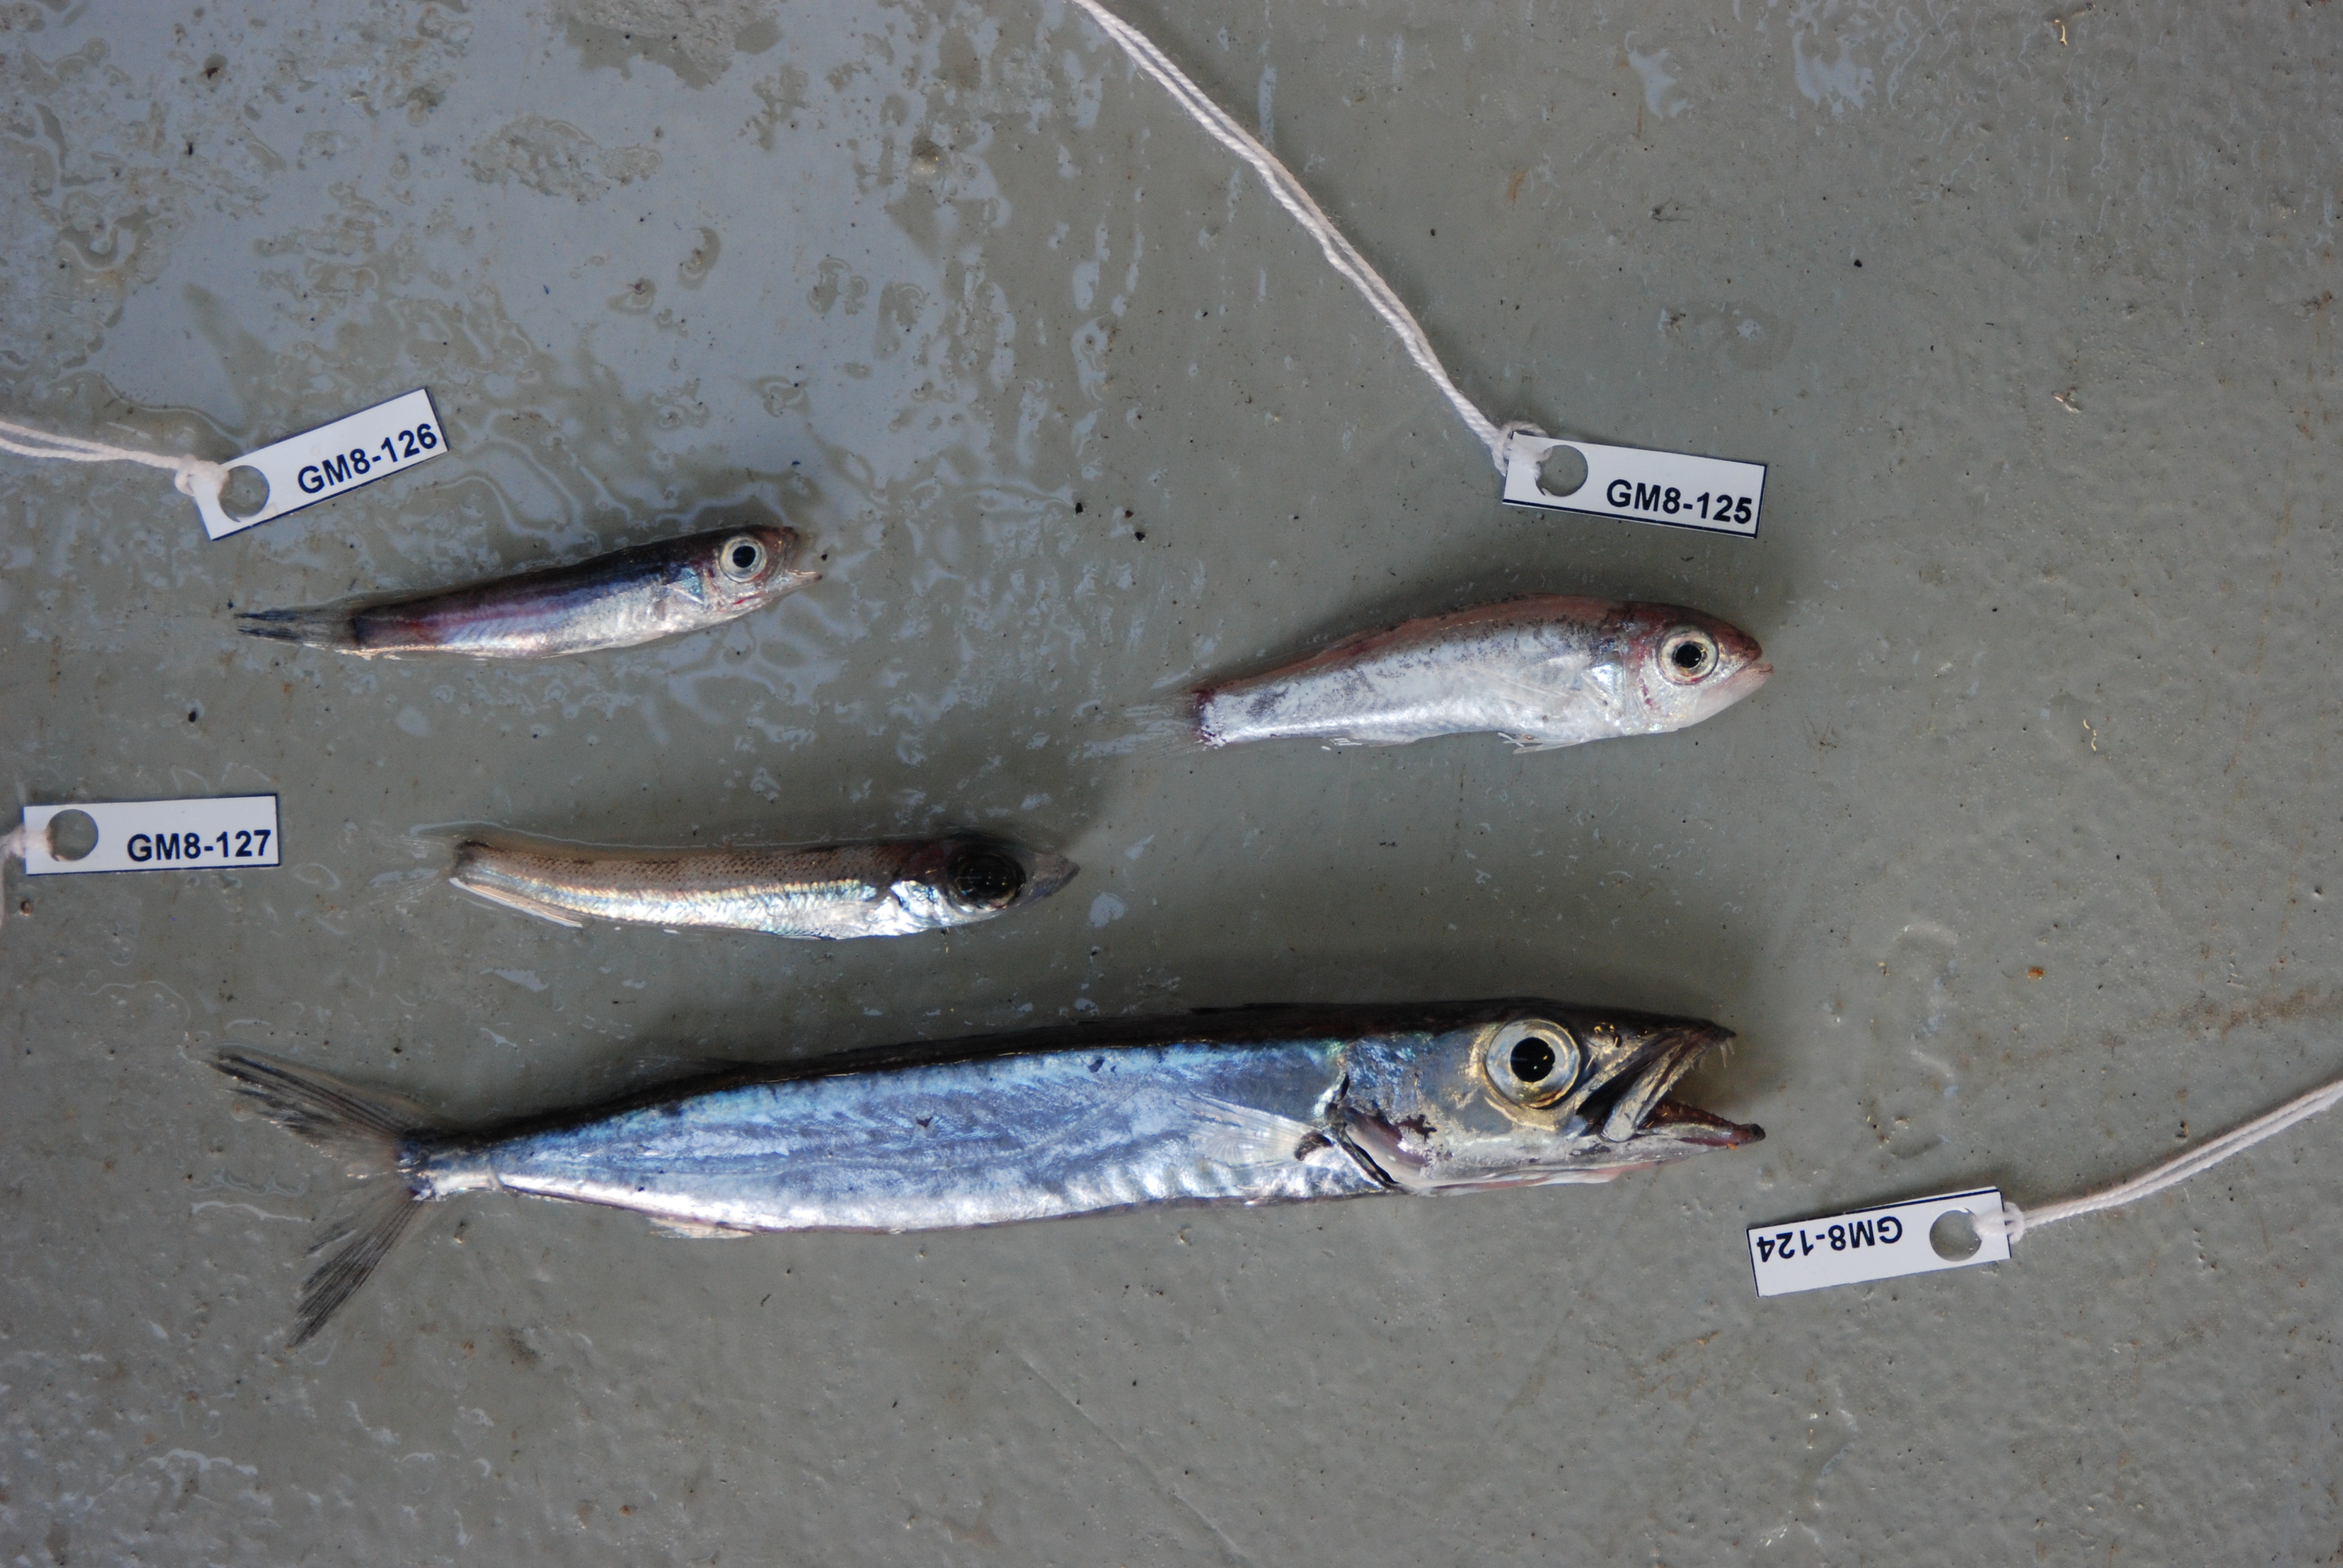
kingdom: Animalia
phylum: Chordata
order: Perciformes
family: Acropomatidae
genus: Synagrops
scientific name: Synagrops japonicus
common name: Japanese splitfin
